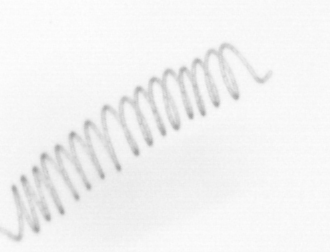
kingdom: Chromista
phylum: Ochrophyta
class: Bacillariophyceae
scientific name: Bacillariophyceae
